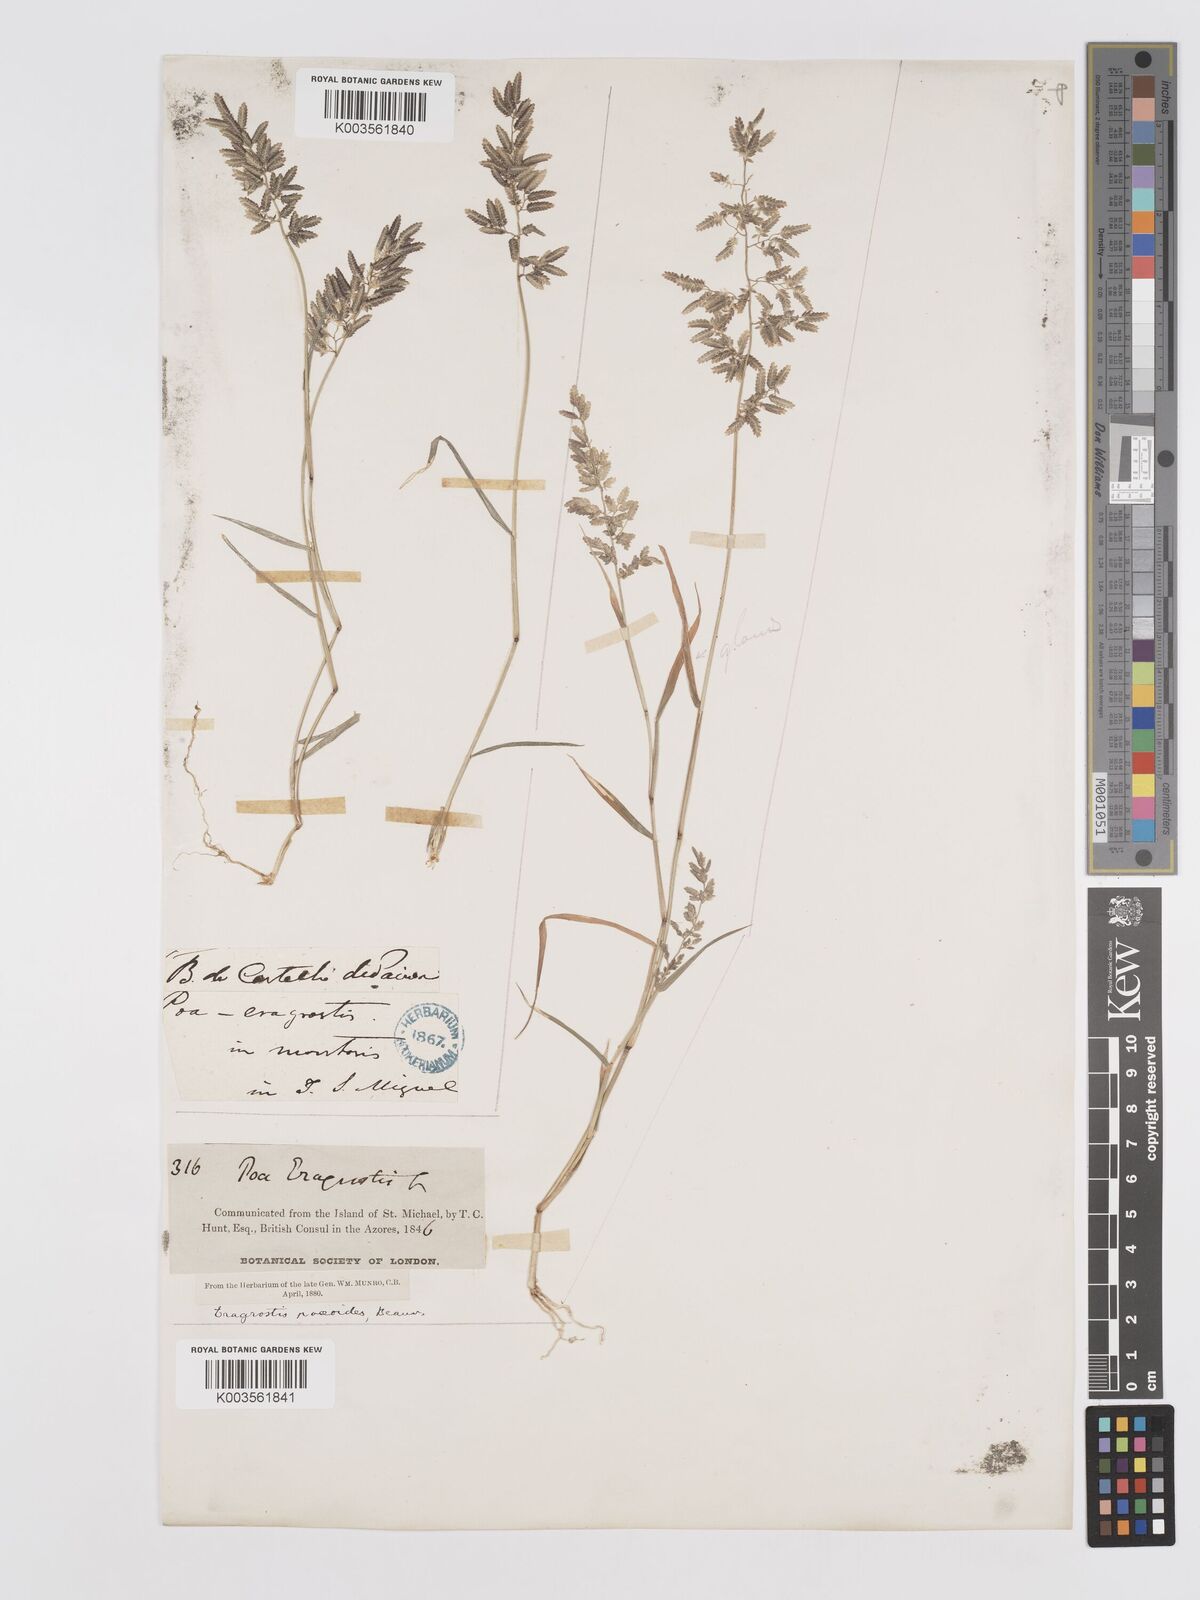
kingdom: Plantae
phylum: Tracheophyta
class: Liliopsida
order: Poales
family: Poaceae
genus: Eragrostis
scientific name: Eragrostis cilianensis
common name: Stinkgrass
